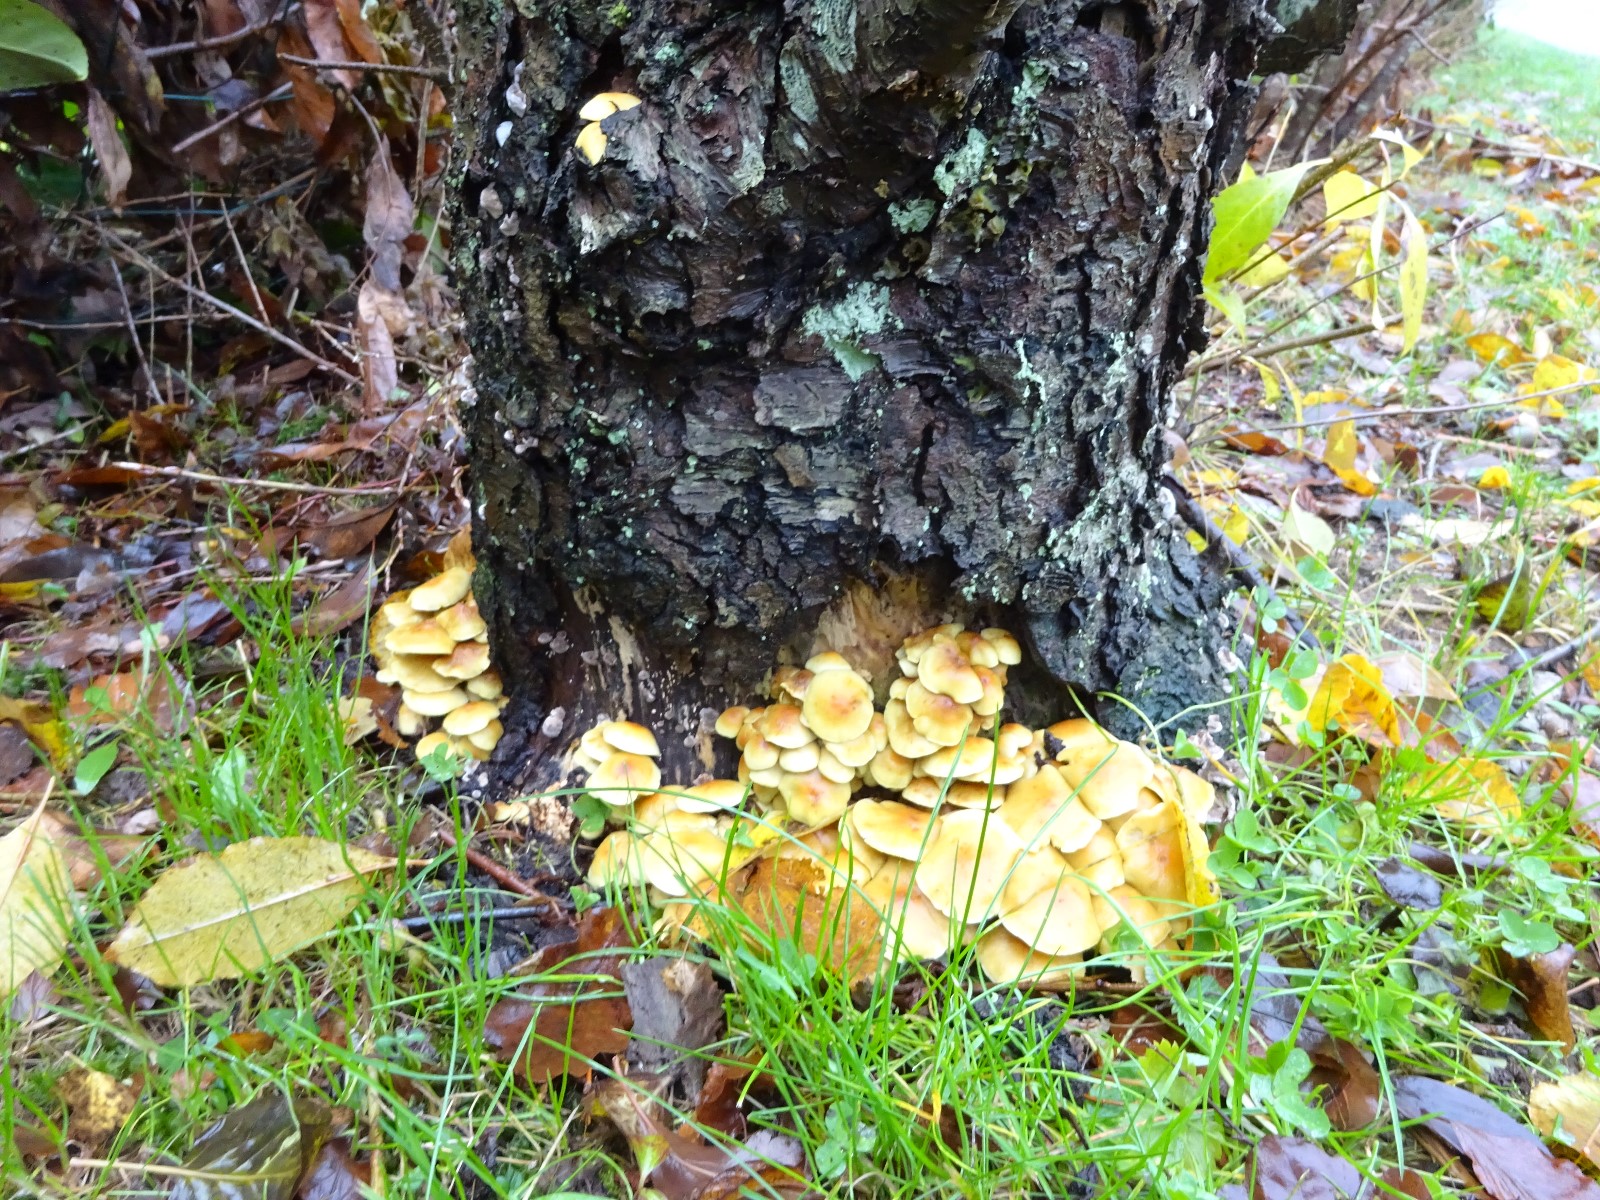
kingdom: Fungi
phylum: Basidiomycota
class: Agaricomycetes
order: Agaricales
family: Strophariaceae
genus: Hypholoma
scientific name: Hypholoma fasciculare
